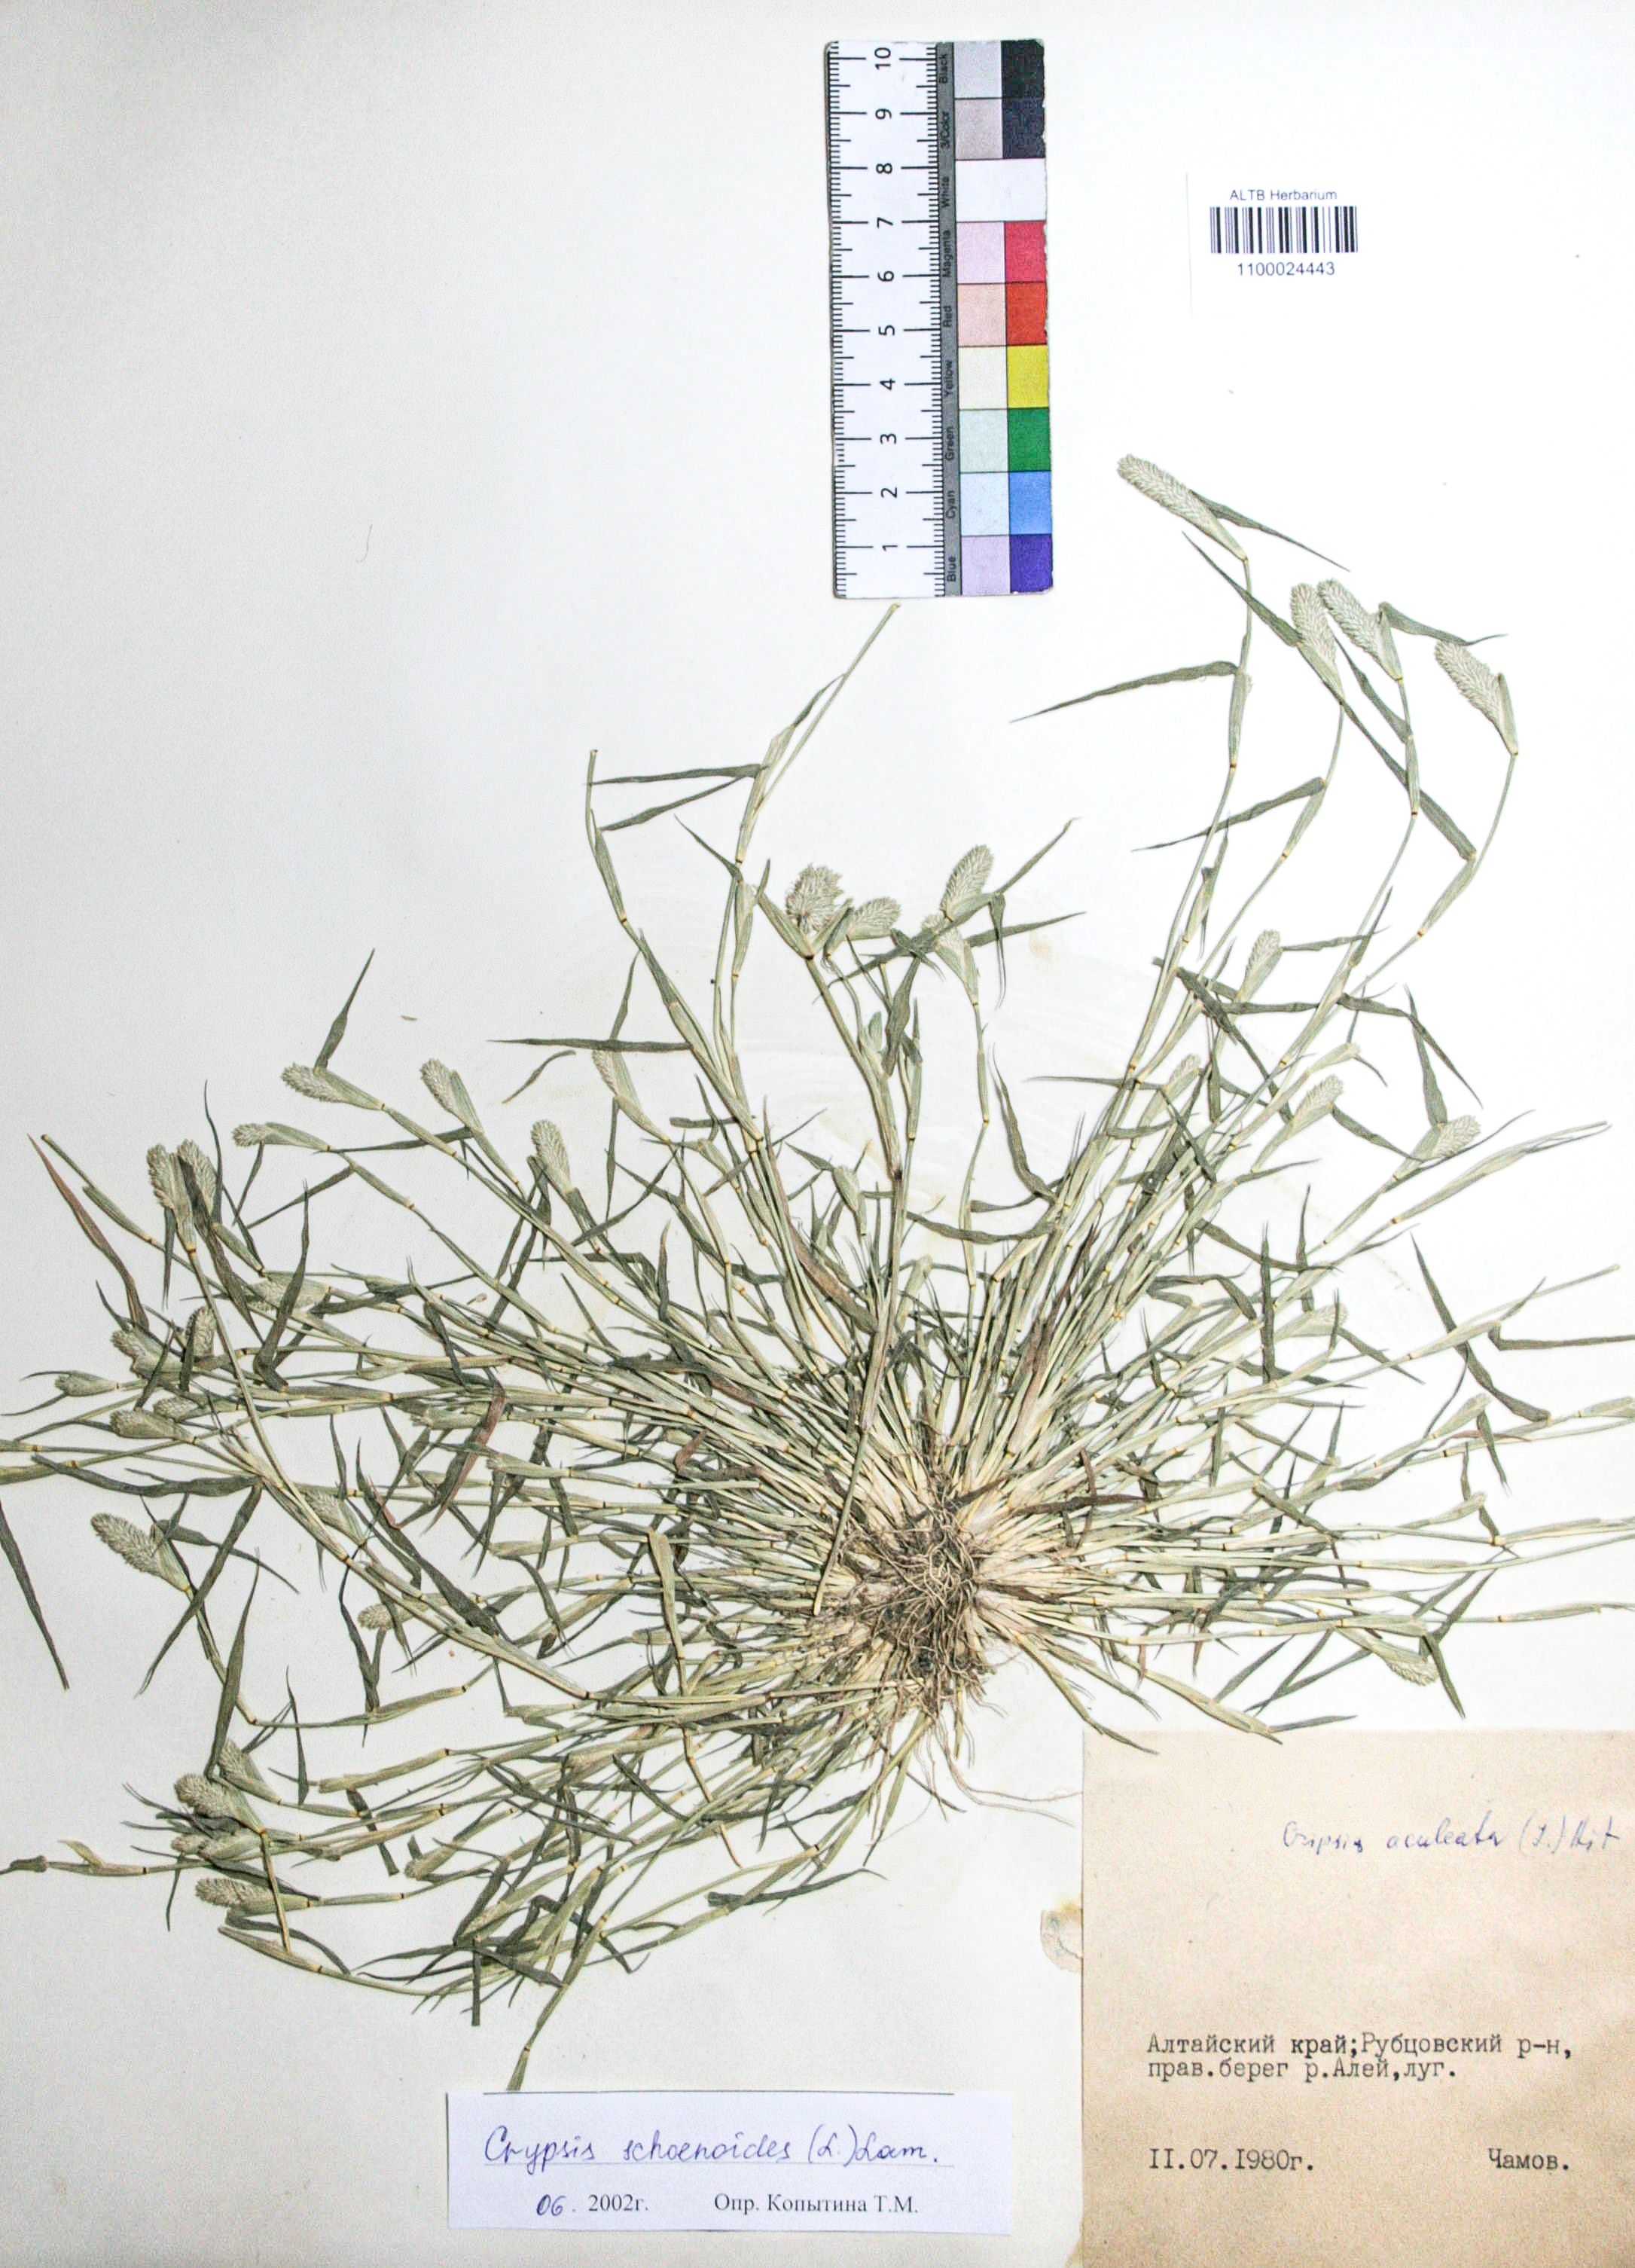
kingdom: Plantae
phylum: Tracheophyta
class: Liliopsida
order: Poales
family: Poaceae
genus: Sporobolus
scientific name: Sporobolus schoenoides
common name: Rush-like timothy
